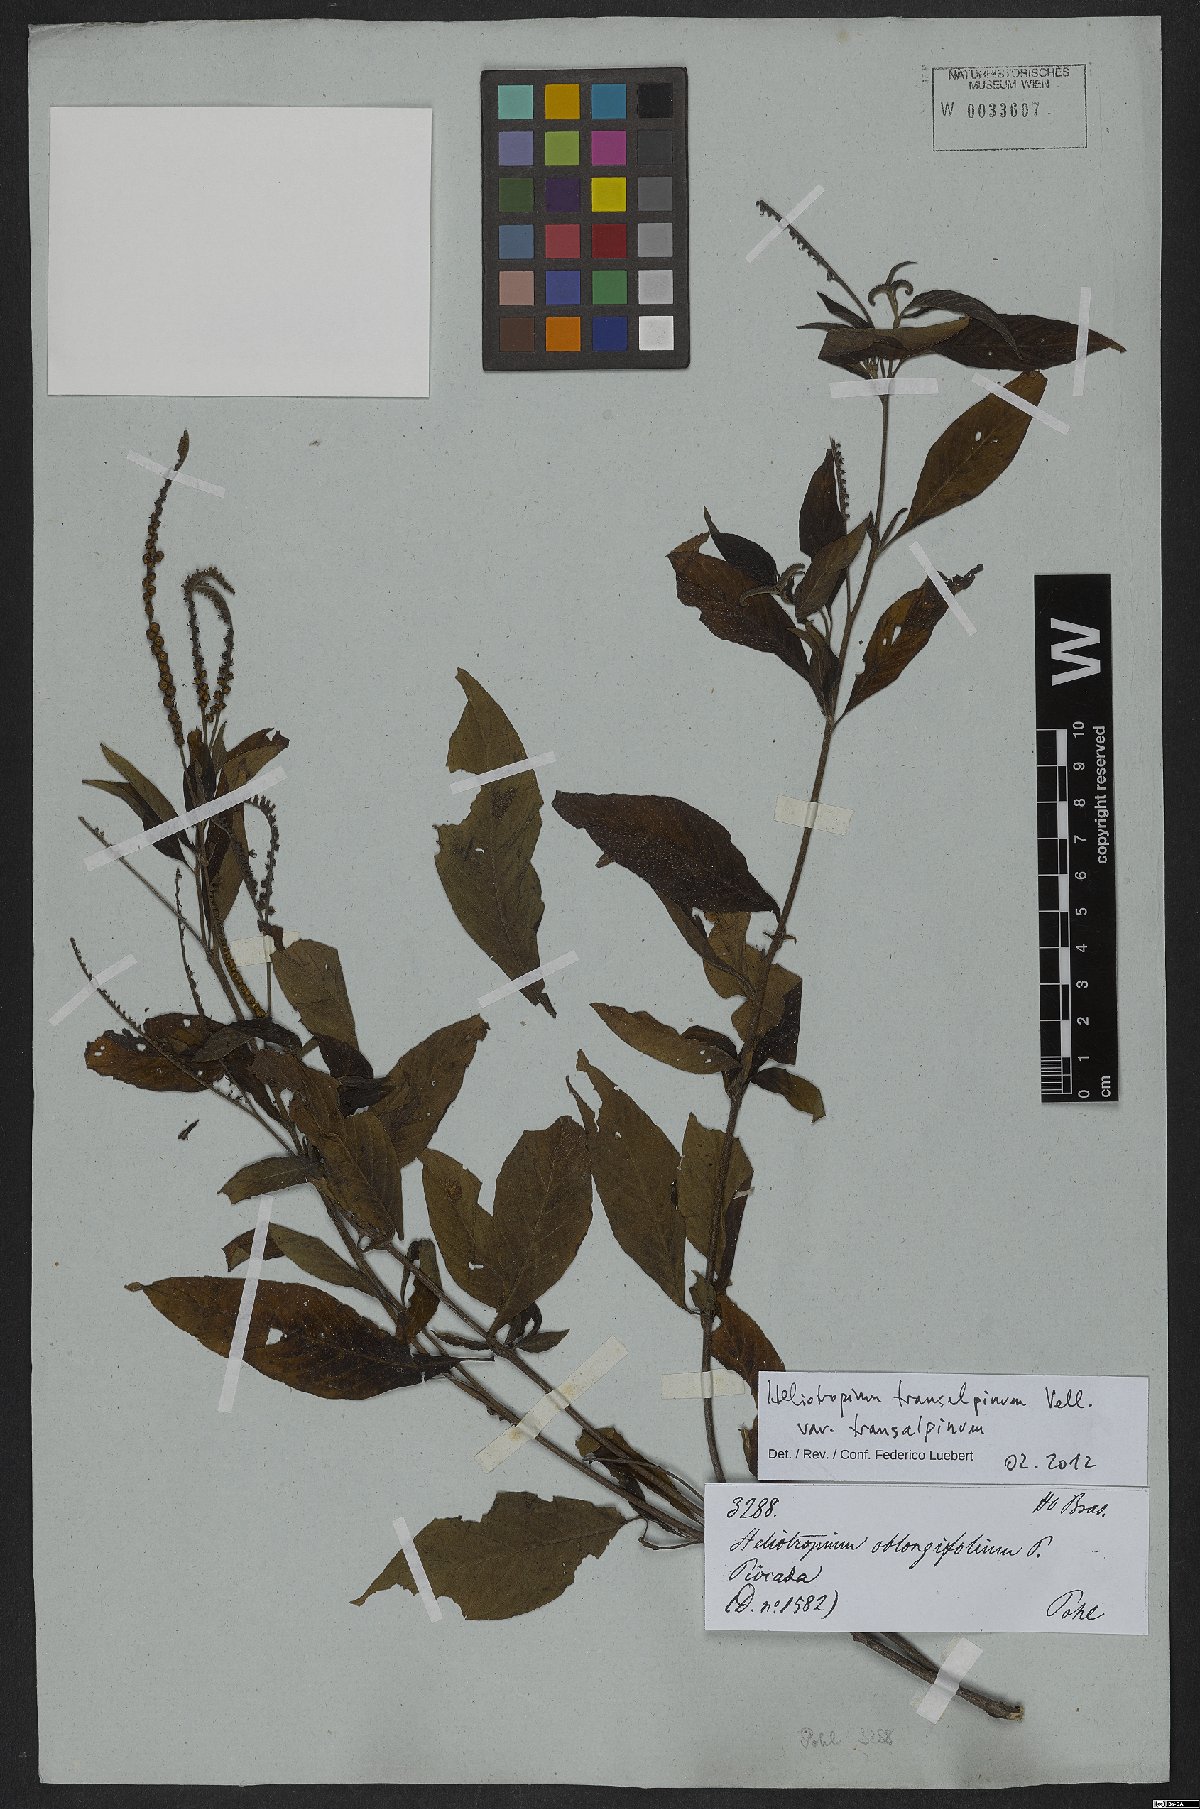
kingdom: Plantae
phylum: Tracheophyta
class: Magnoliopsida
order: Boraginales
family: Heliotropiaceae
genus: Heliotropium
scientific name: Heliotropium transalpinum
